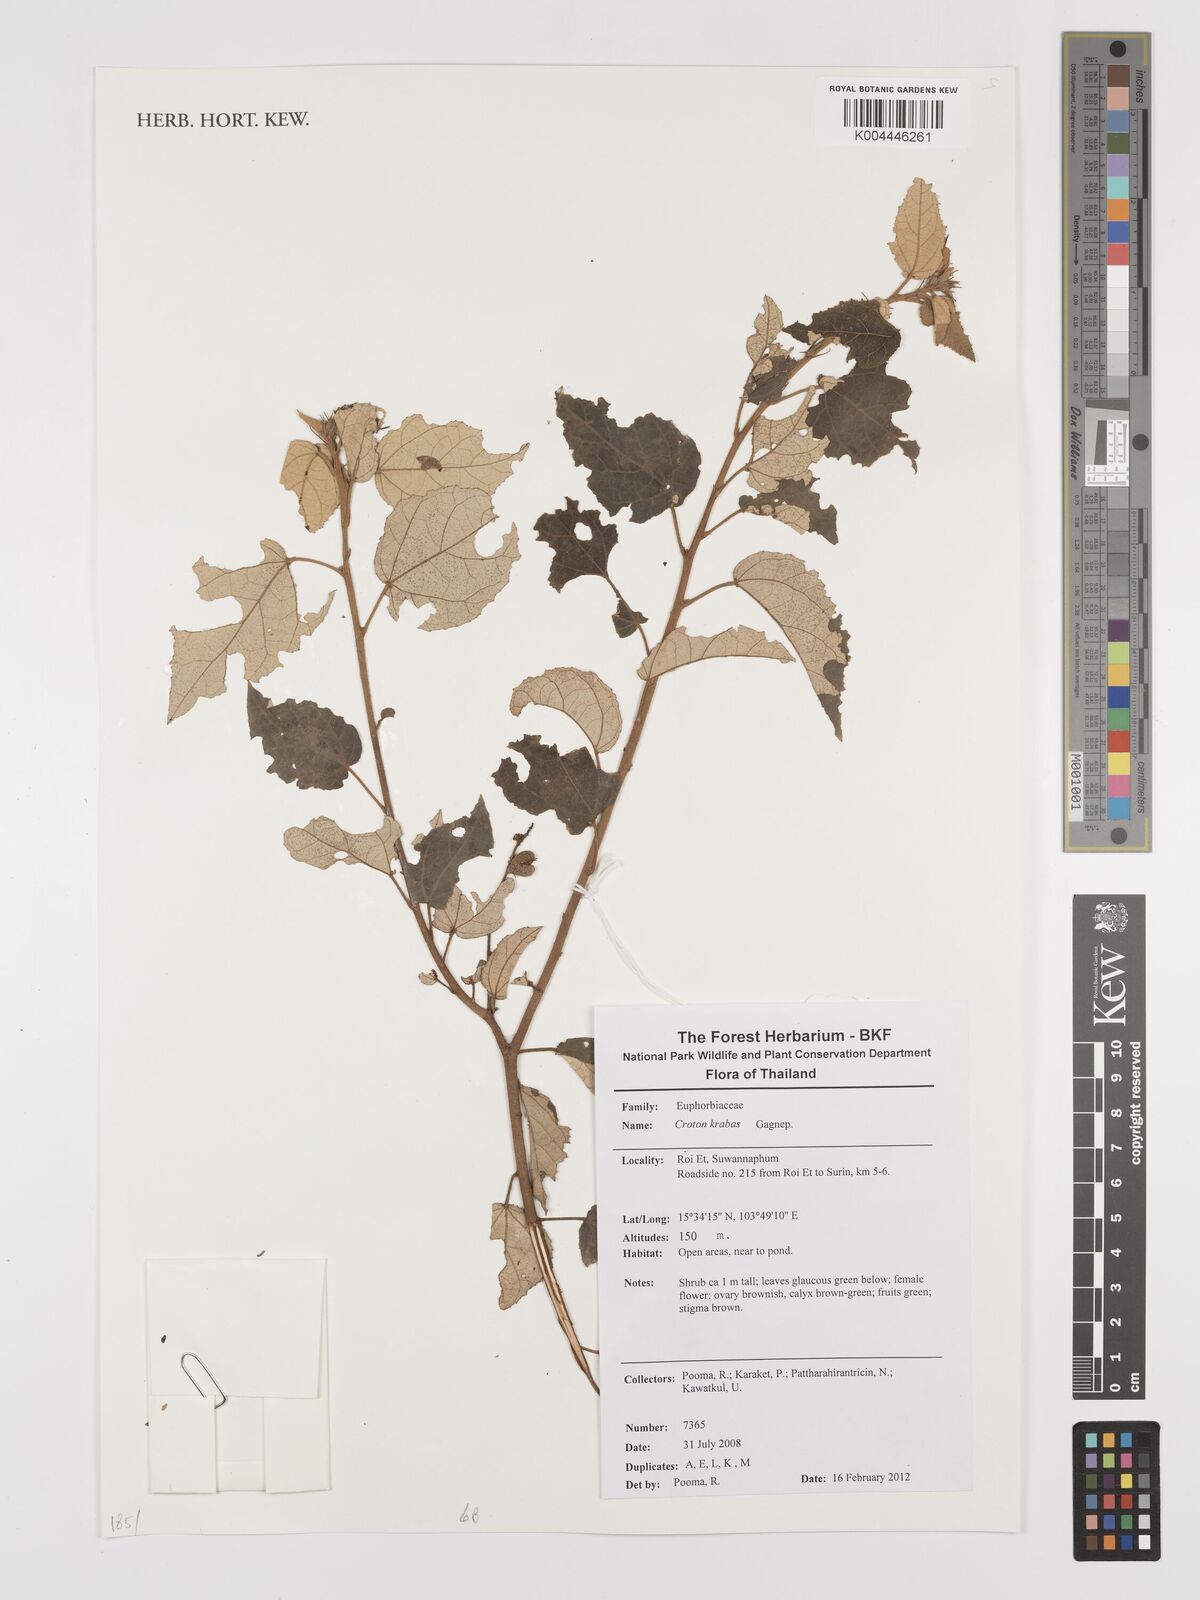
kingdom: Plantae
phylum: Tracheophyta
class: Magnoliopsida
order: Malpighiales
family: Euphorbiaceae
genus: Croton
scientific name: Croton krabas
